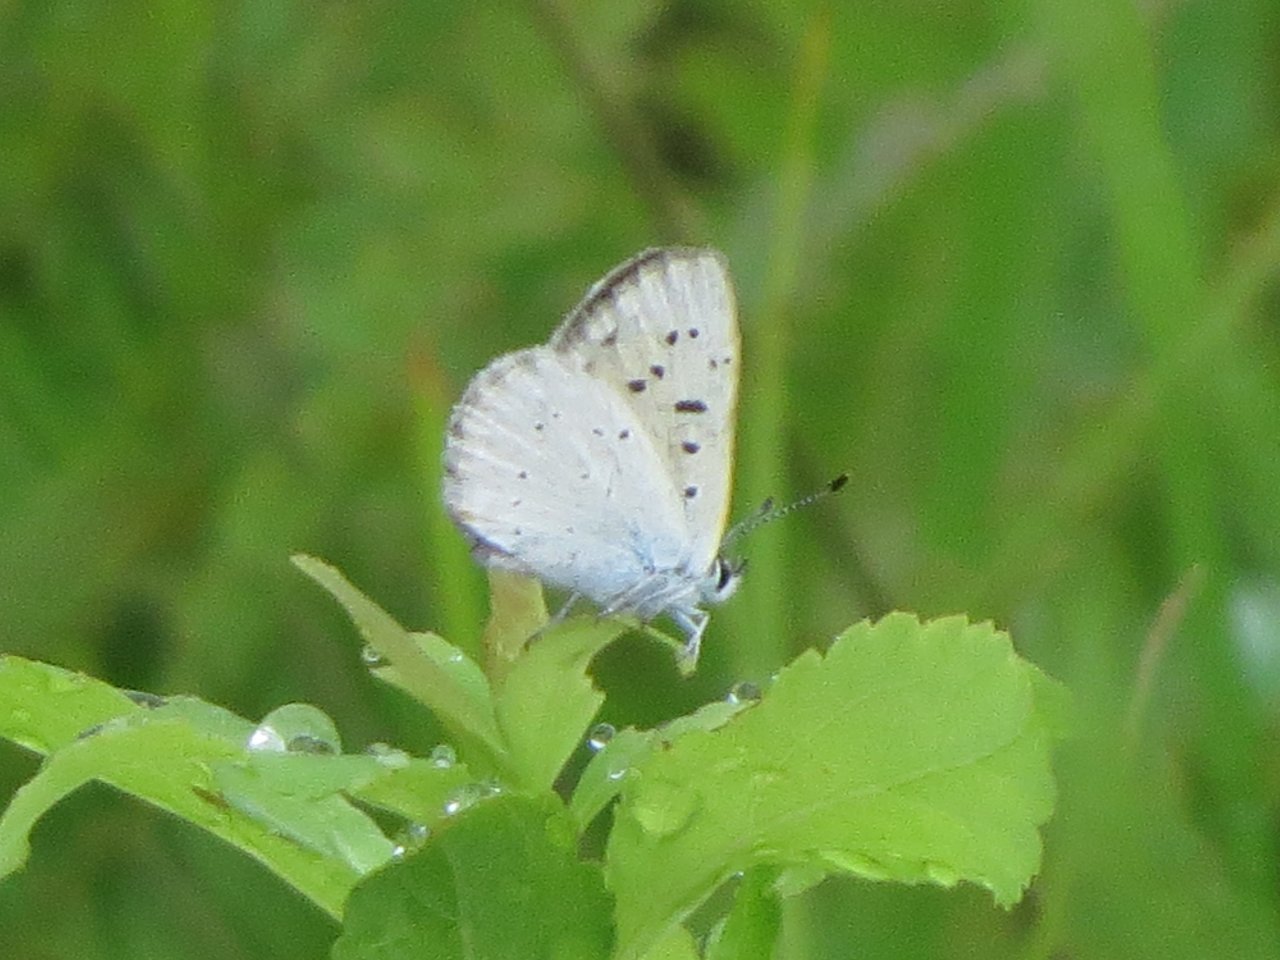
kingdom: Animalia
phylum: Arthropoda
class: Insecta
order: Lepidoptera
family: Sesiidae
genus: Sesia
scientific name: Sesia Lycaena epixanthe
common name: Bog Copper
